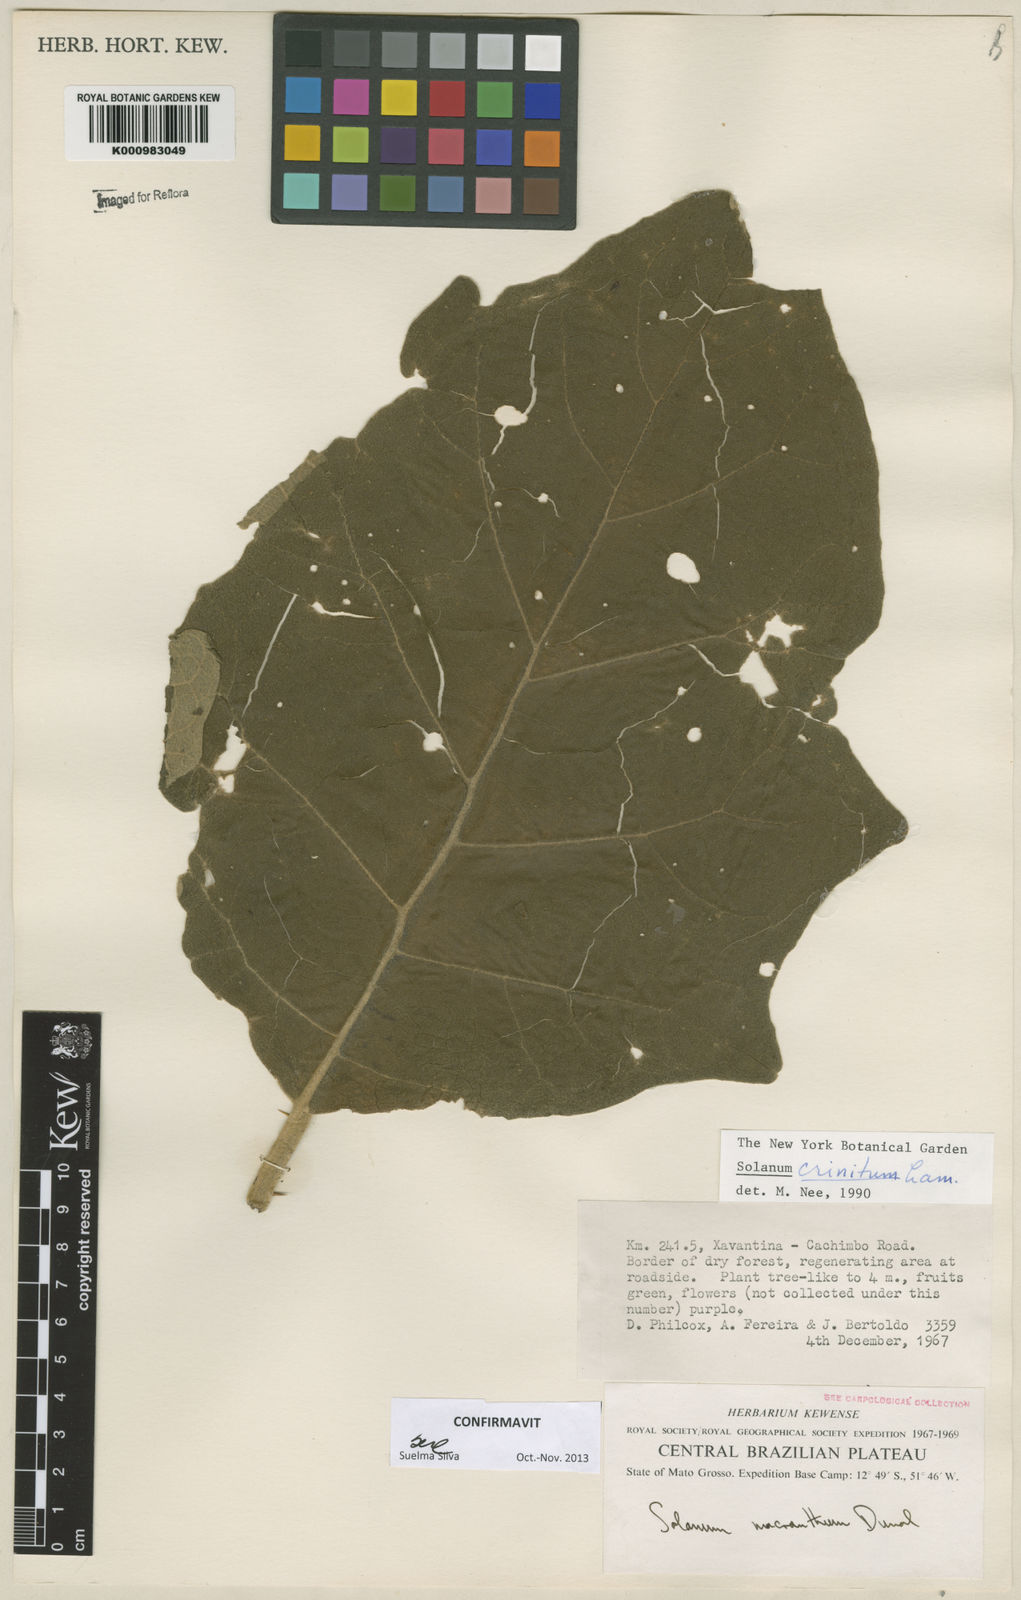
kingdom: Plantae
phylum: Tracheophyta
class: Magnoliopsida
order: Solanales
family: Solanaceae
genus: Solanum
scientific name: Solanum crinitum
